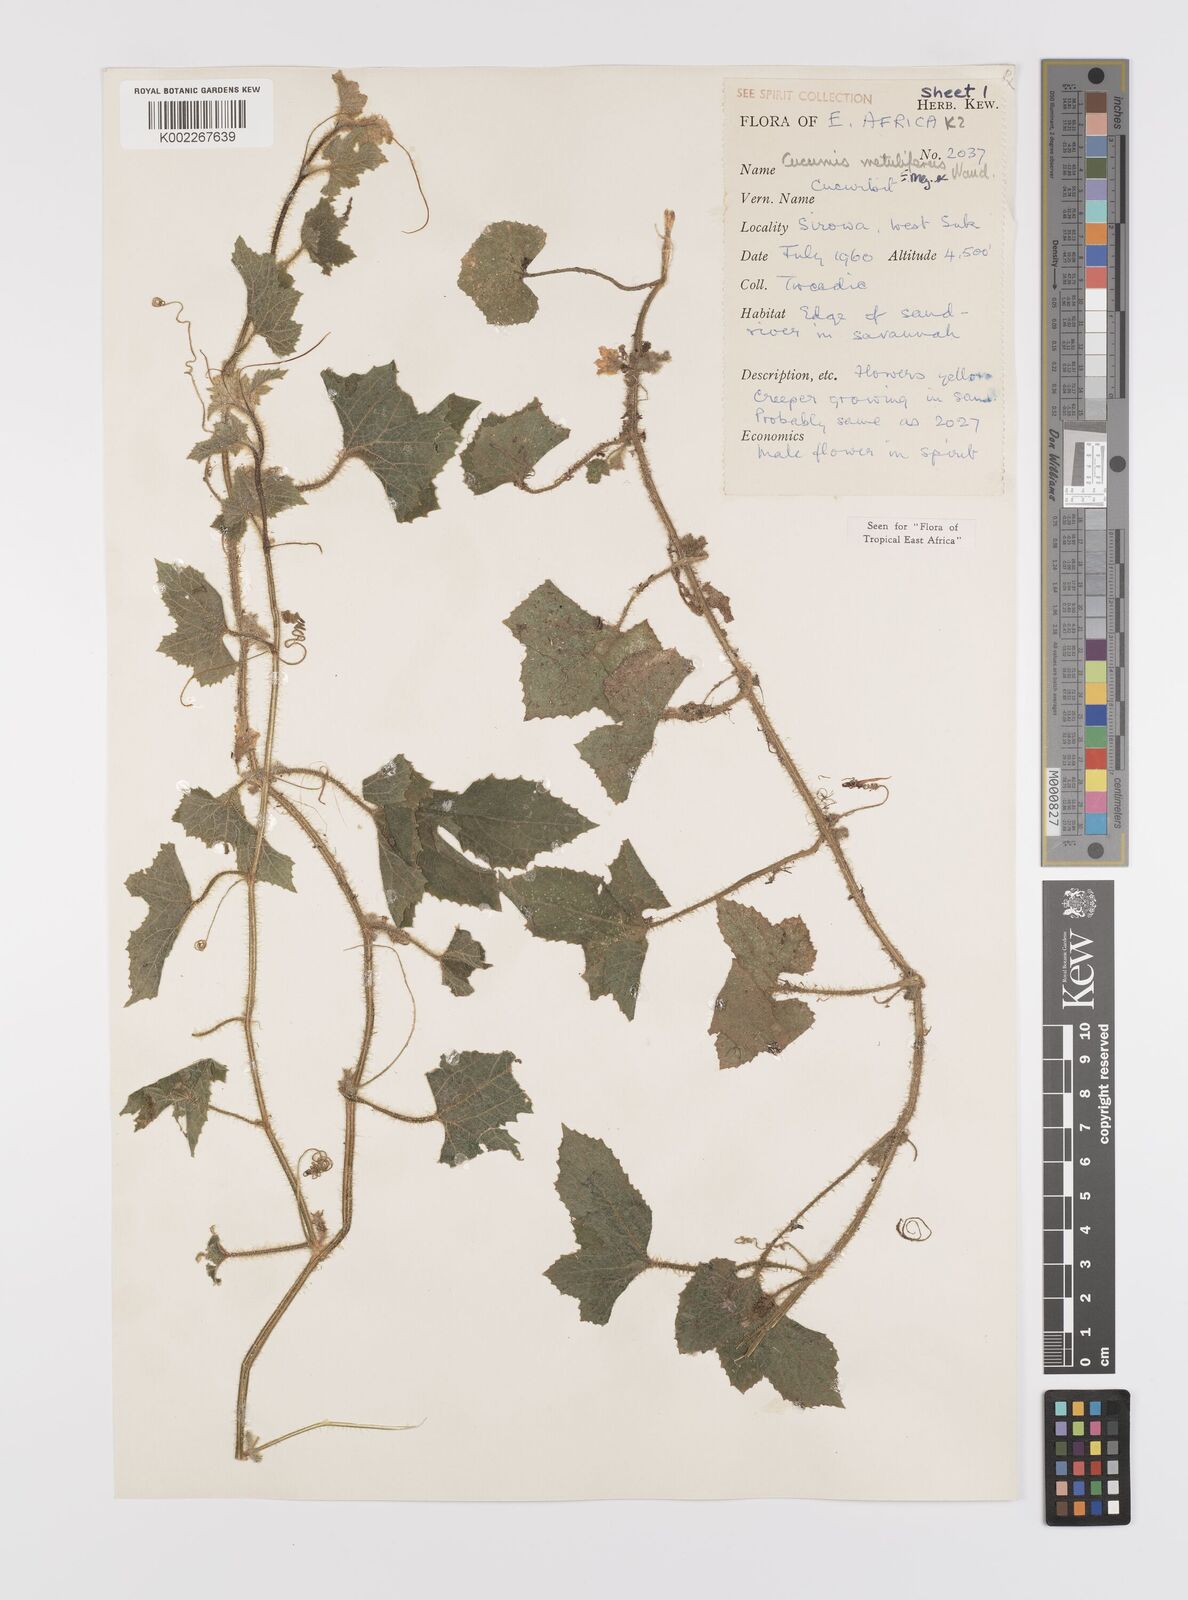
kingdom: Plantae
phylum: Tracheophyta
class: Magnoliopsida
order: Cucurbitales
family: Cucurbitaceae
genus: Cucumis
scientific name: Cucumis metuliferus
